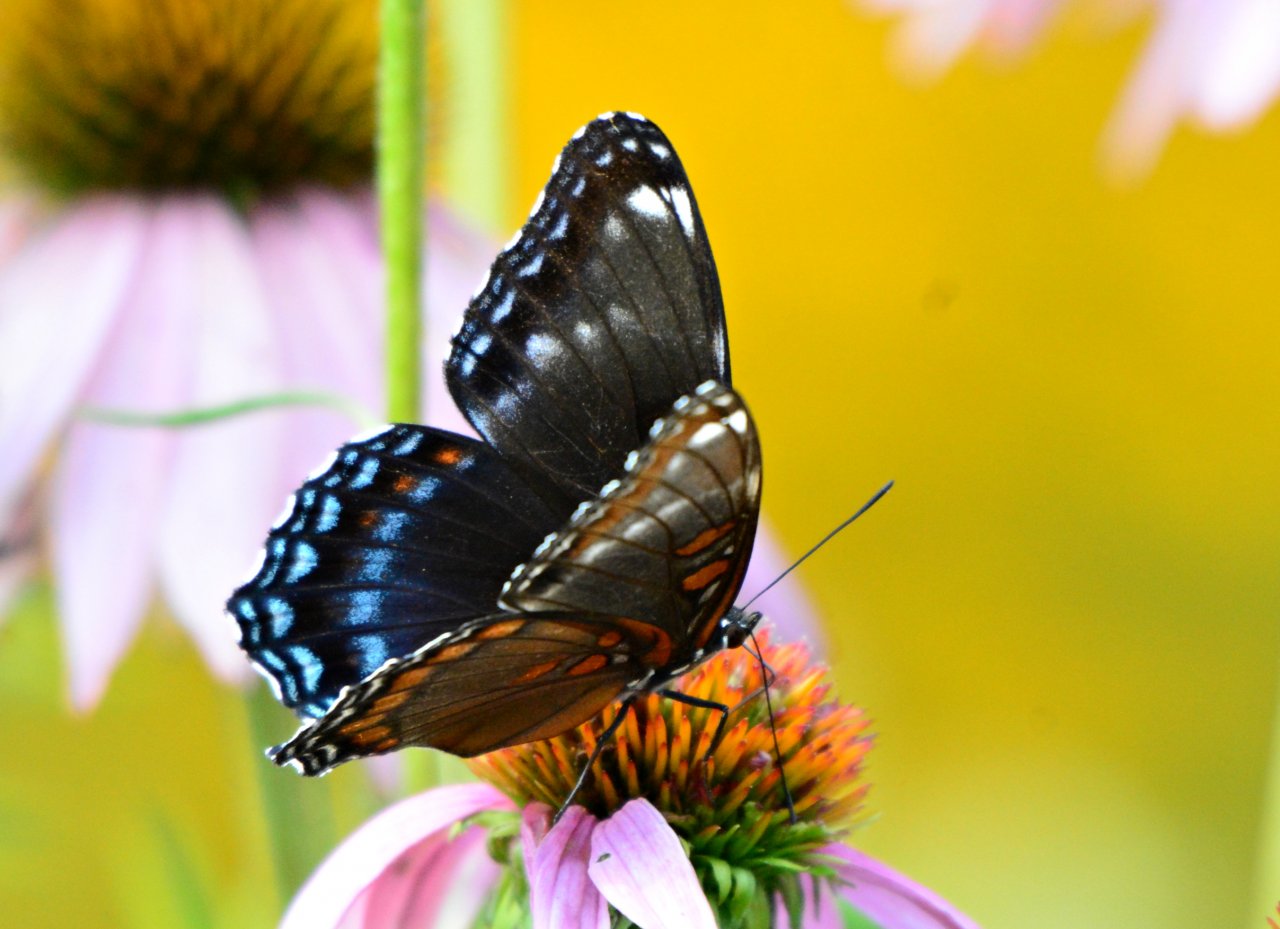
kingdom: Animalia
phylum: Arthropoda
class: Insecta
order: Lepidoptera
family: Nymphalidae
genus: Limenitis
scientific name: Limenitis astyanax
